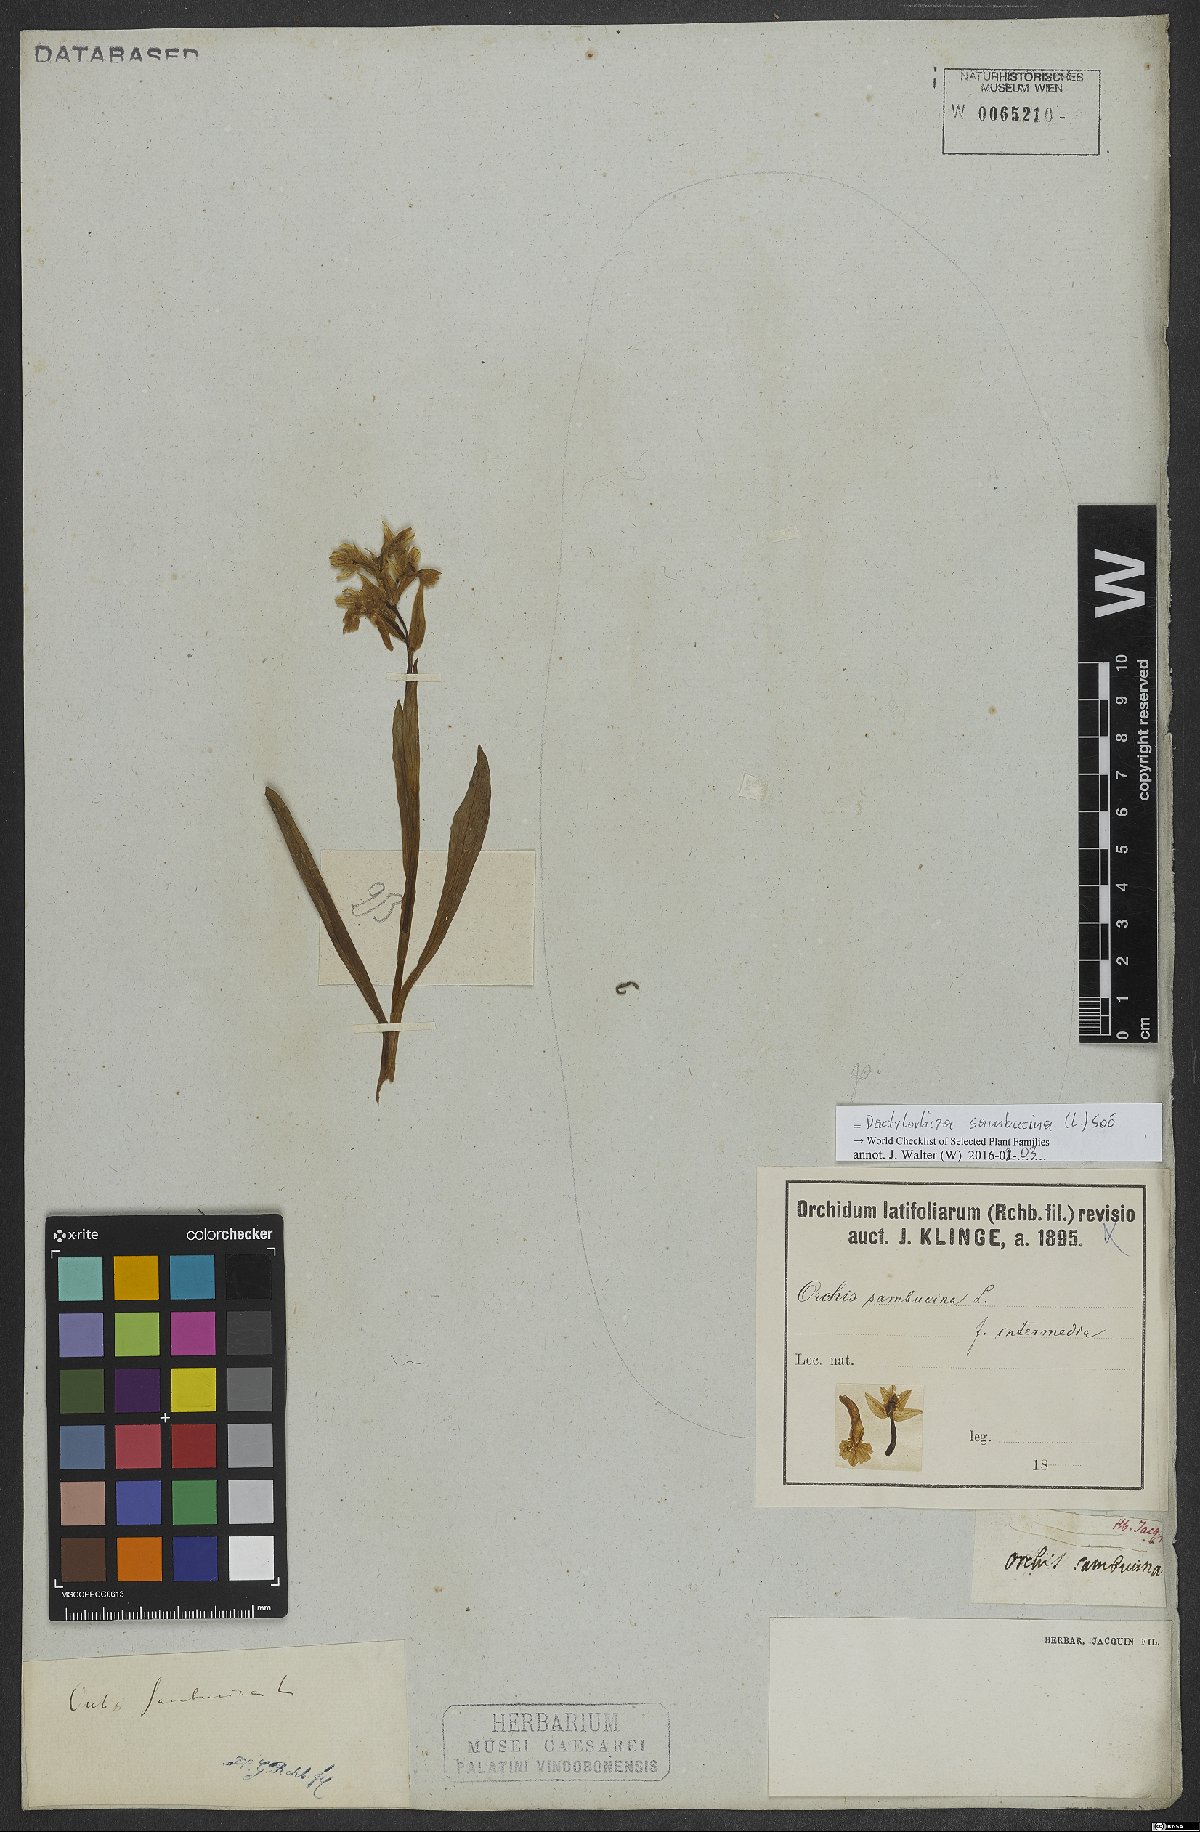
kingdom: Plantae
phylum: Tracheophyta
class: Liliopsida
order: Asparagales
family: Orchidaceae
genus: Dactylorhiza
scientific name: Dactylorhiza sambucina
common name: Elder-flowered orchid
